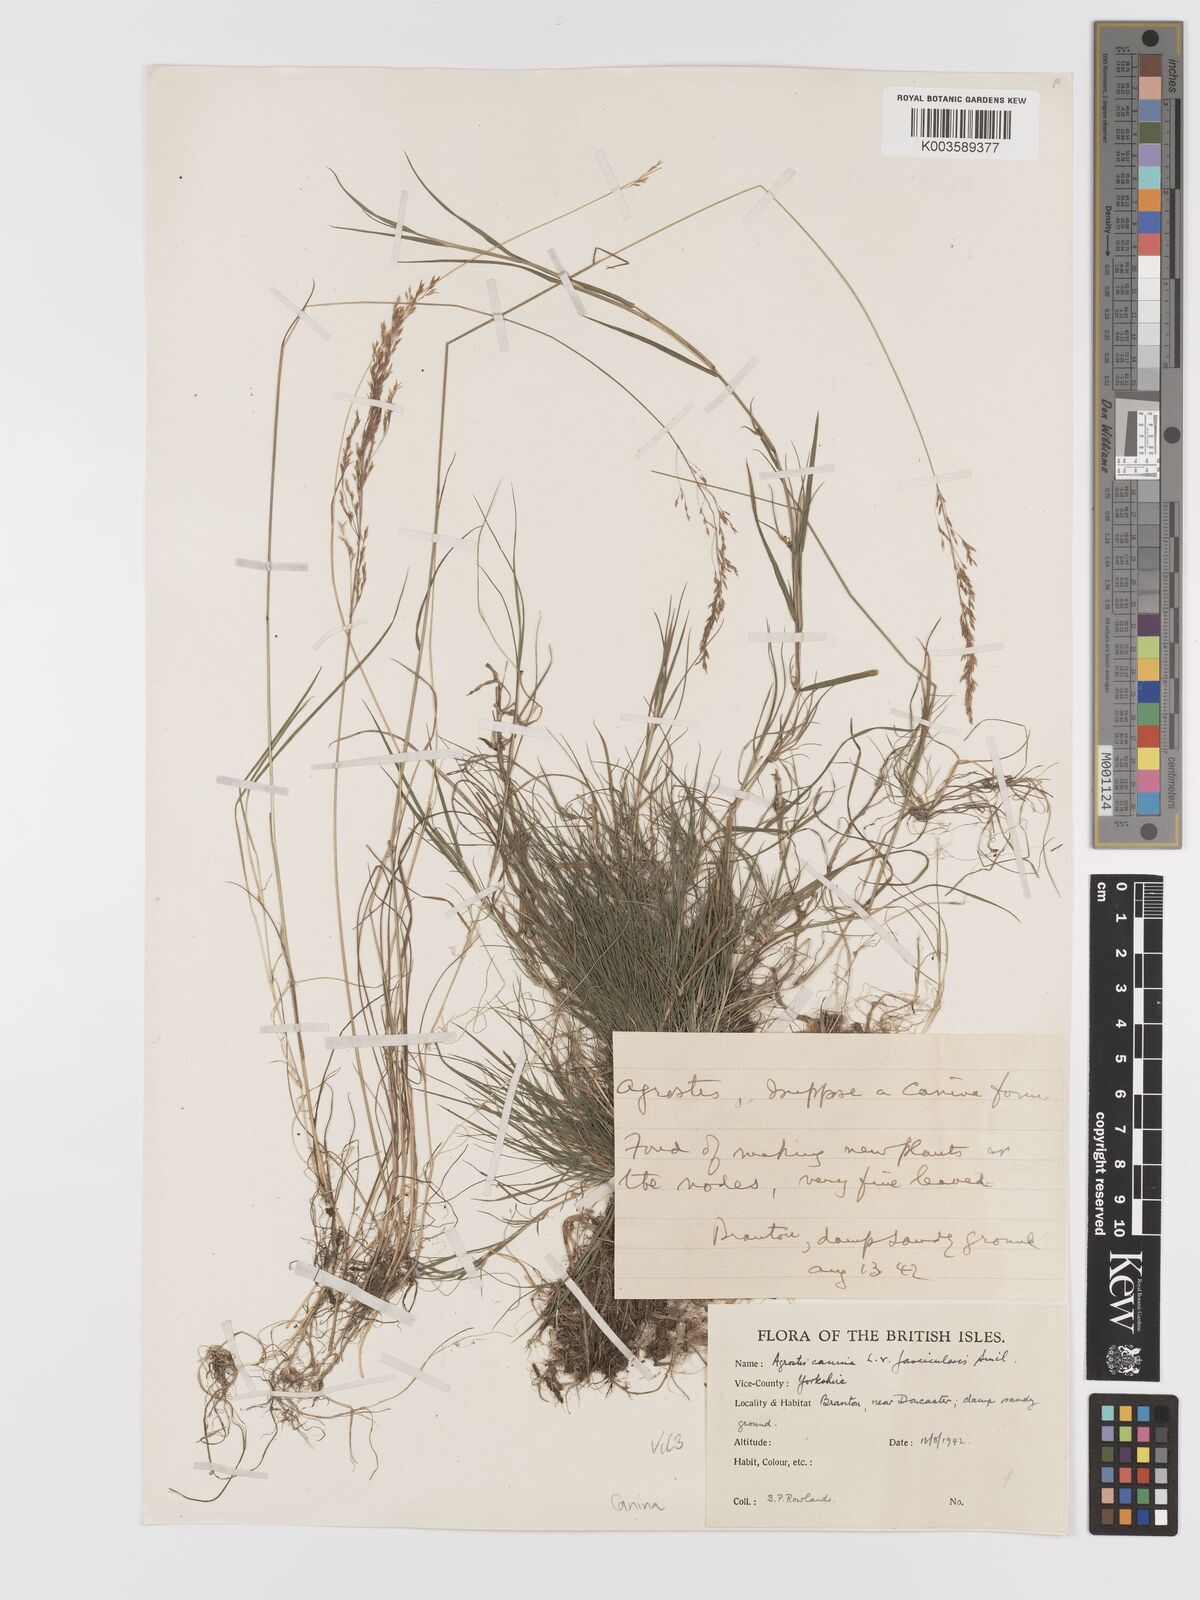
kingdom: Plantae
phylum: Tracheophyta
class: Liliopsida
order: Poales
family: Poaceae
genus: Agrostis
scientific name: Agrostis canina
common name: Velvet bent
